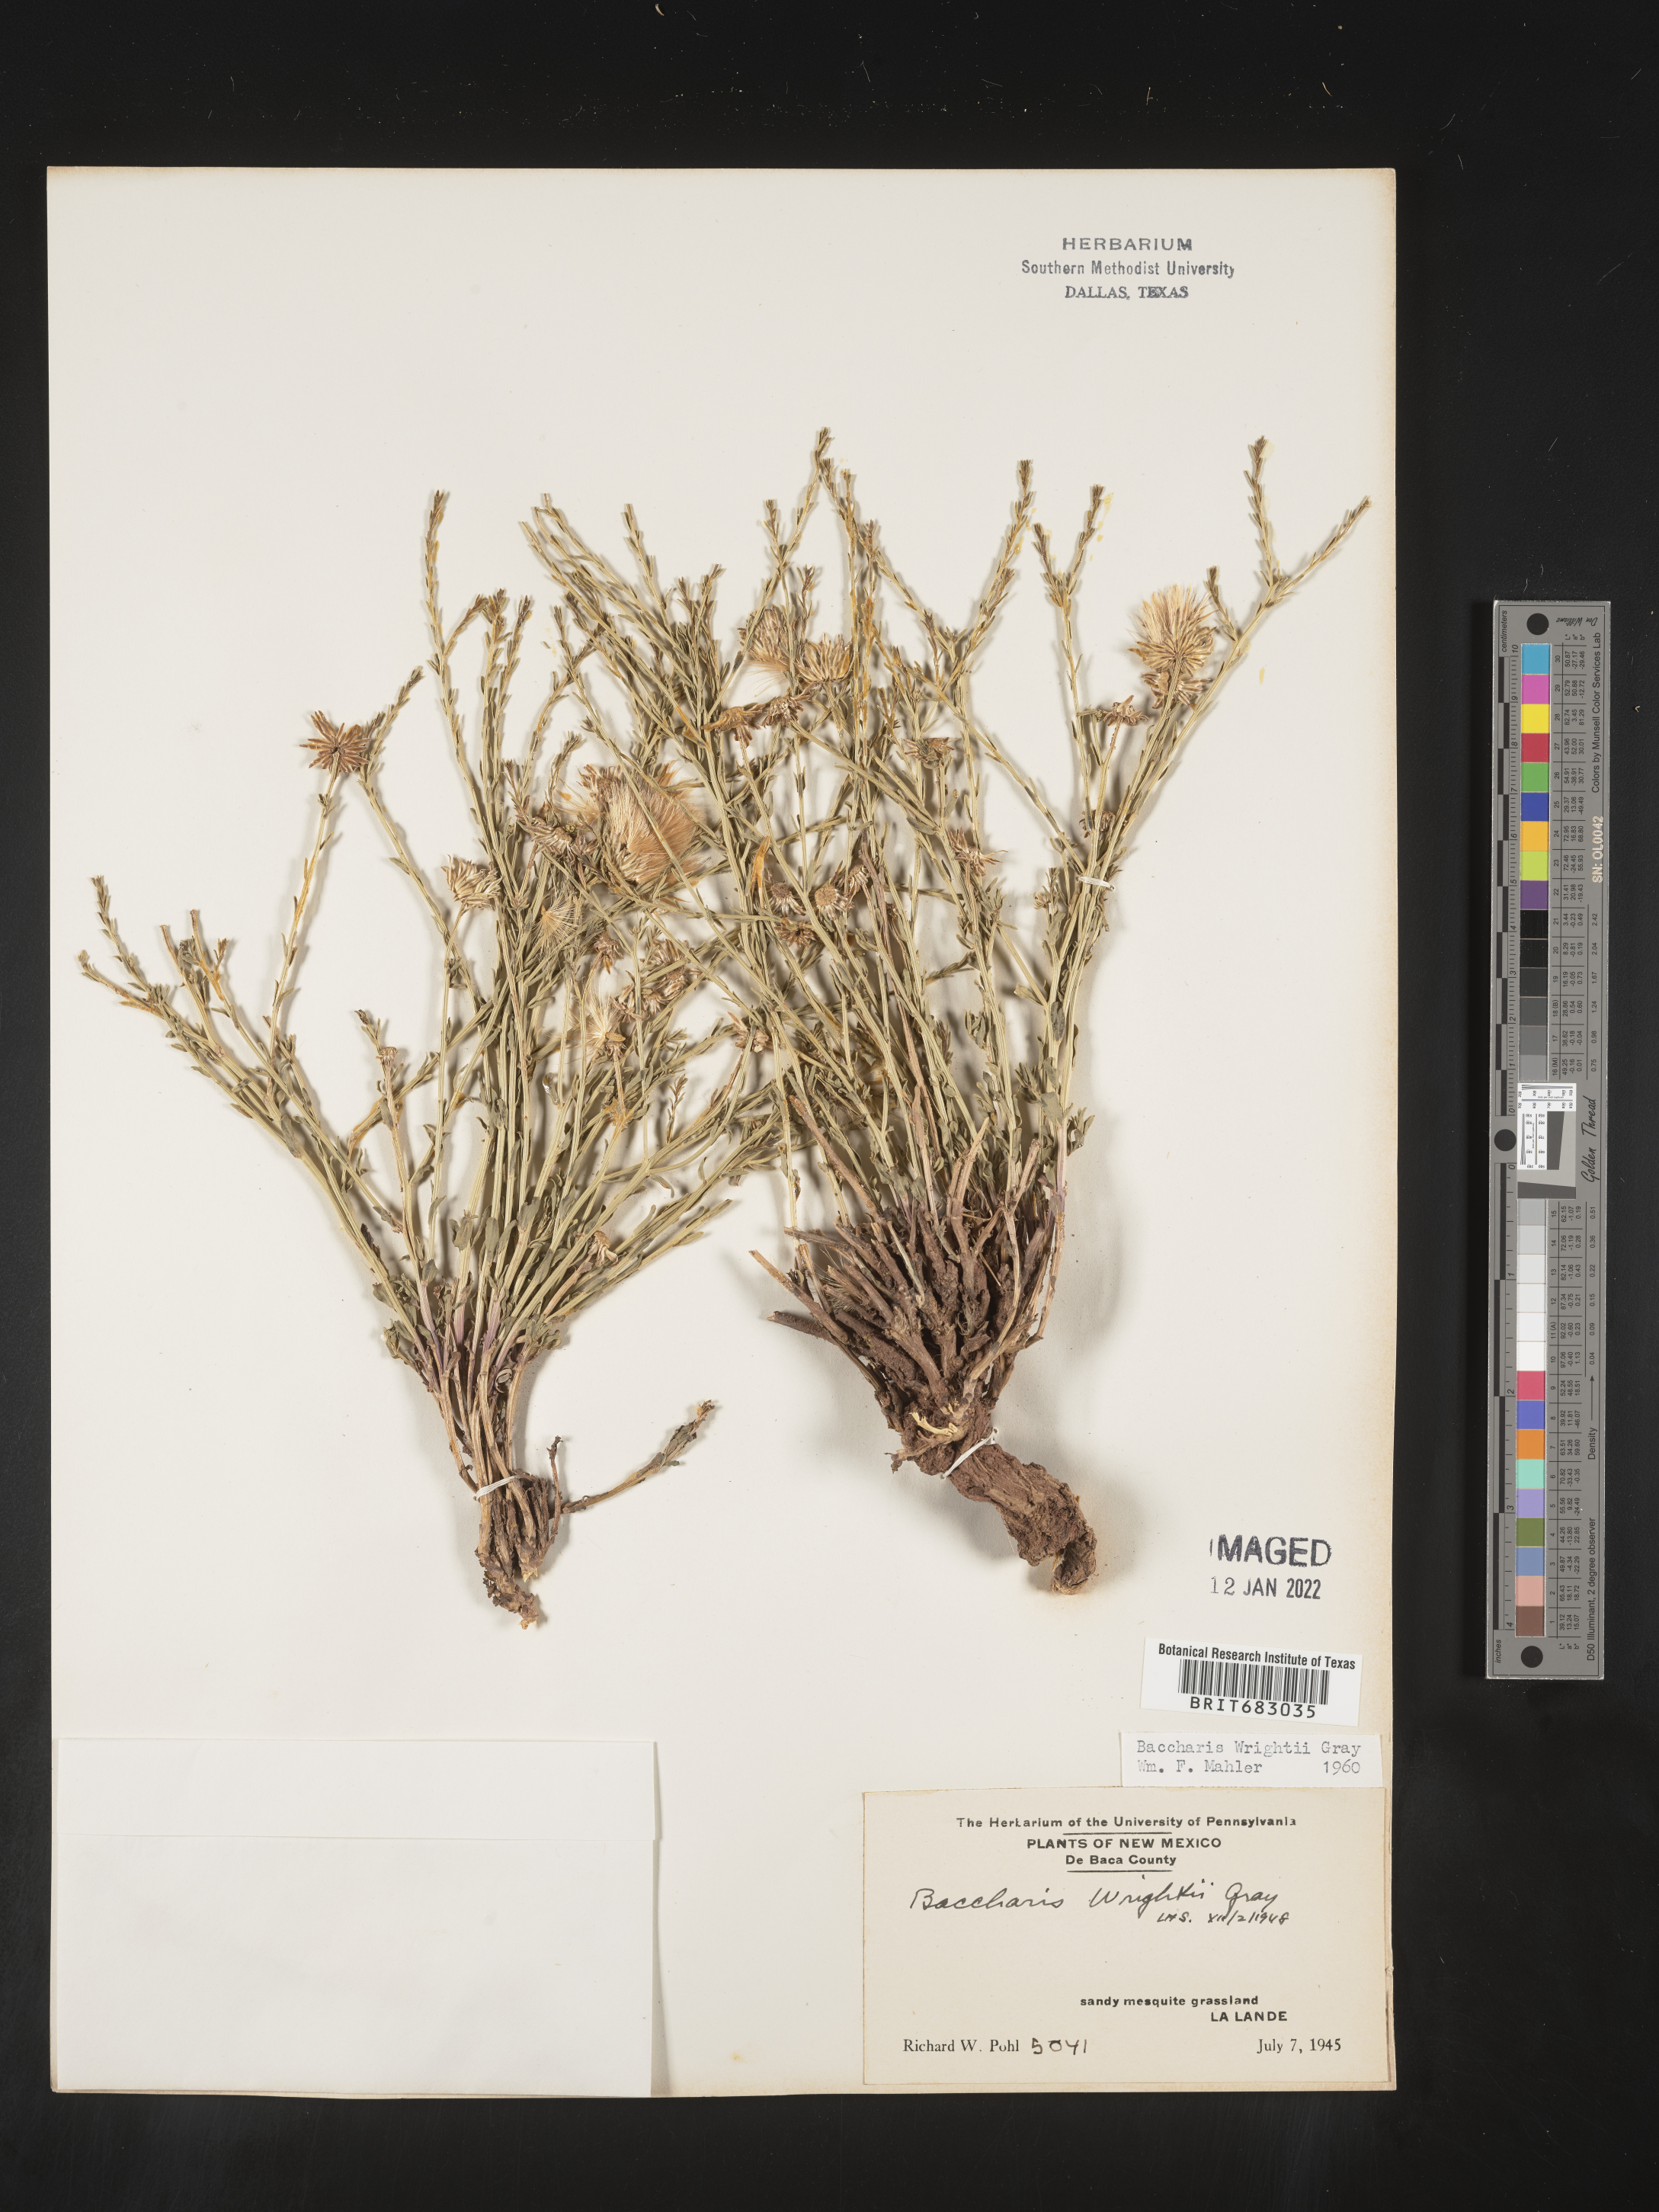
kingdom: Plantae
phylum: Tracheophyta
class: Magnoliopsida
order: Asterales
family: Asteraceae
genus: Baccharis
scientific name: Baccharis wrightii
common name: Wright's baccharis
